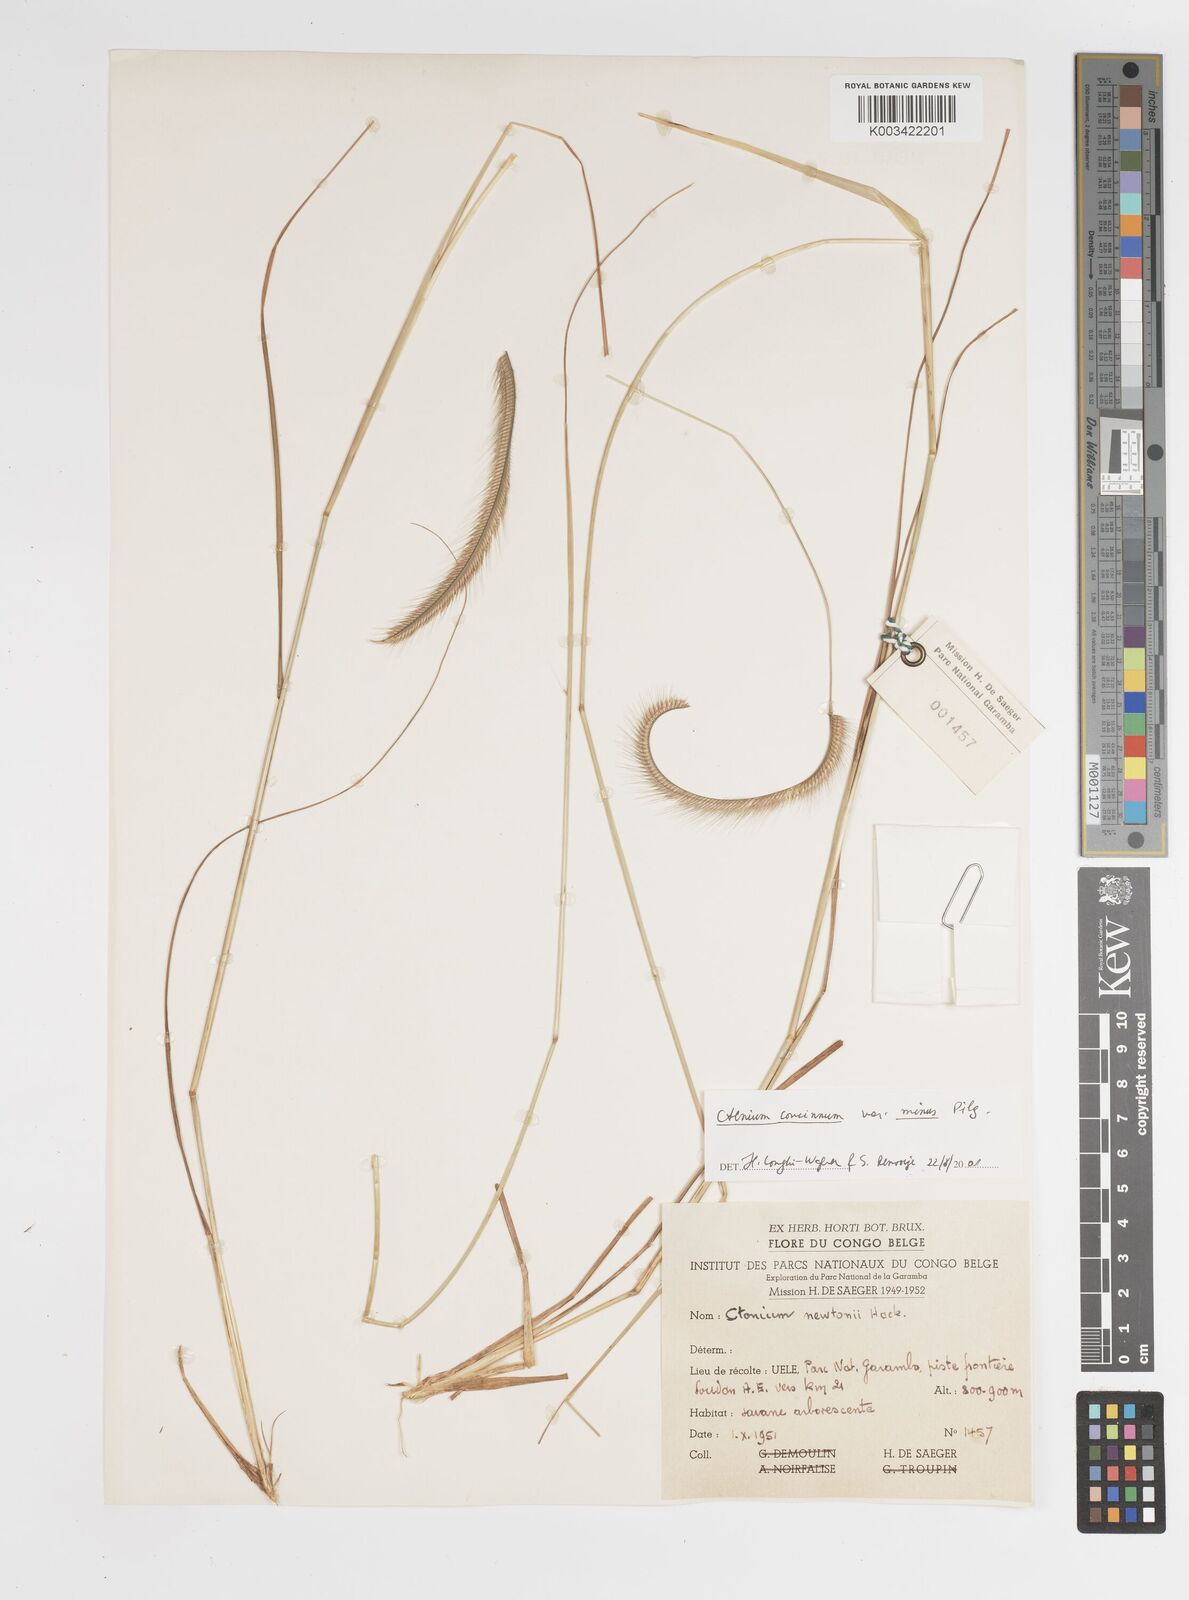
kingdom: Plantae
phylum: Tracheophyta
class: Liliopsida
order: Poales
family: Poaceae
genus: Ctenium
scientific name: Ctenium newtonii
